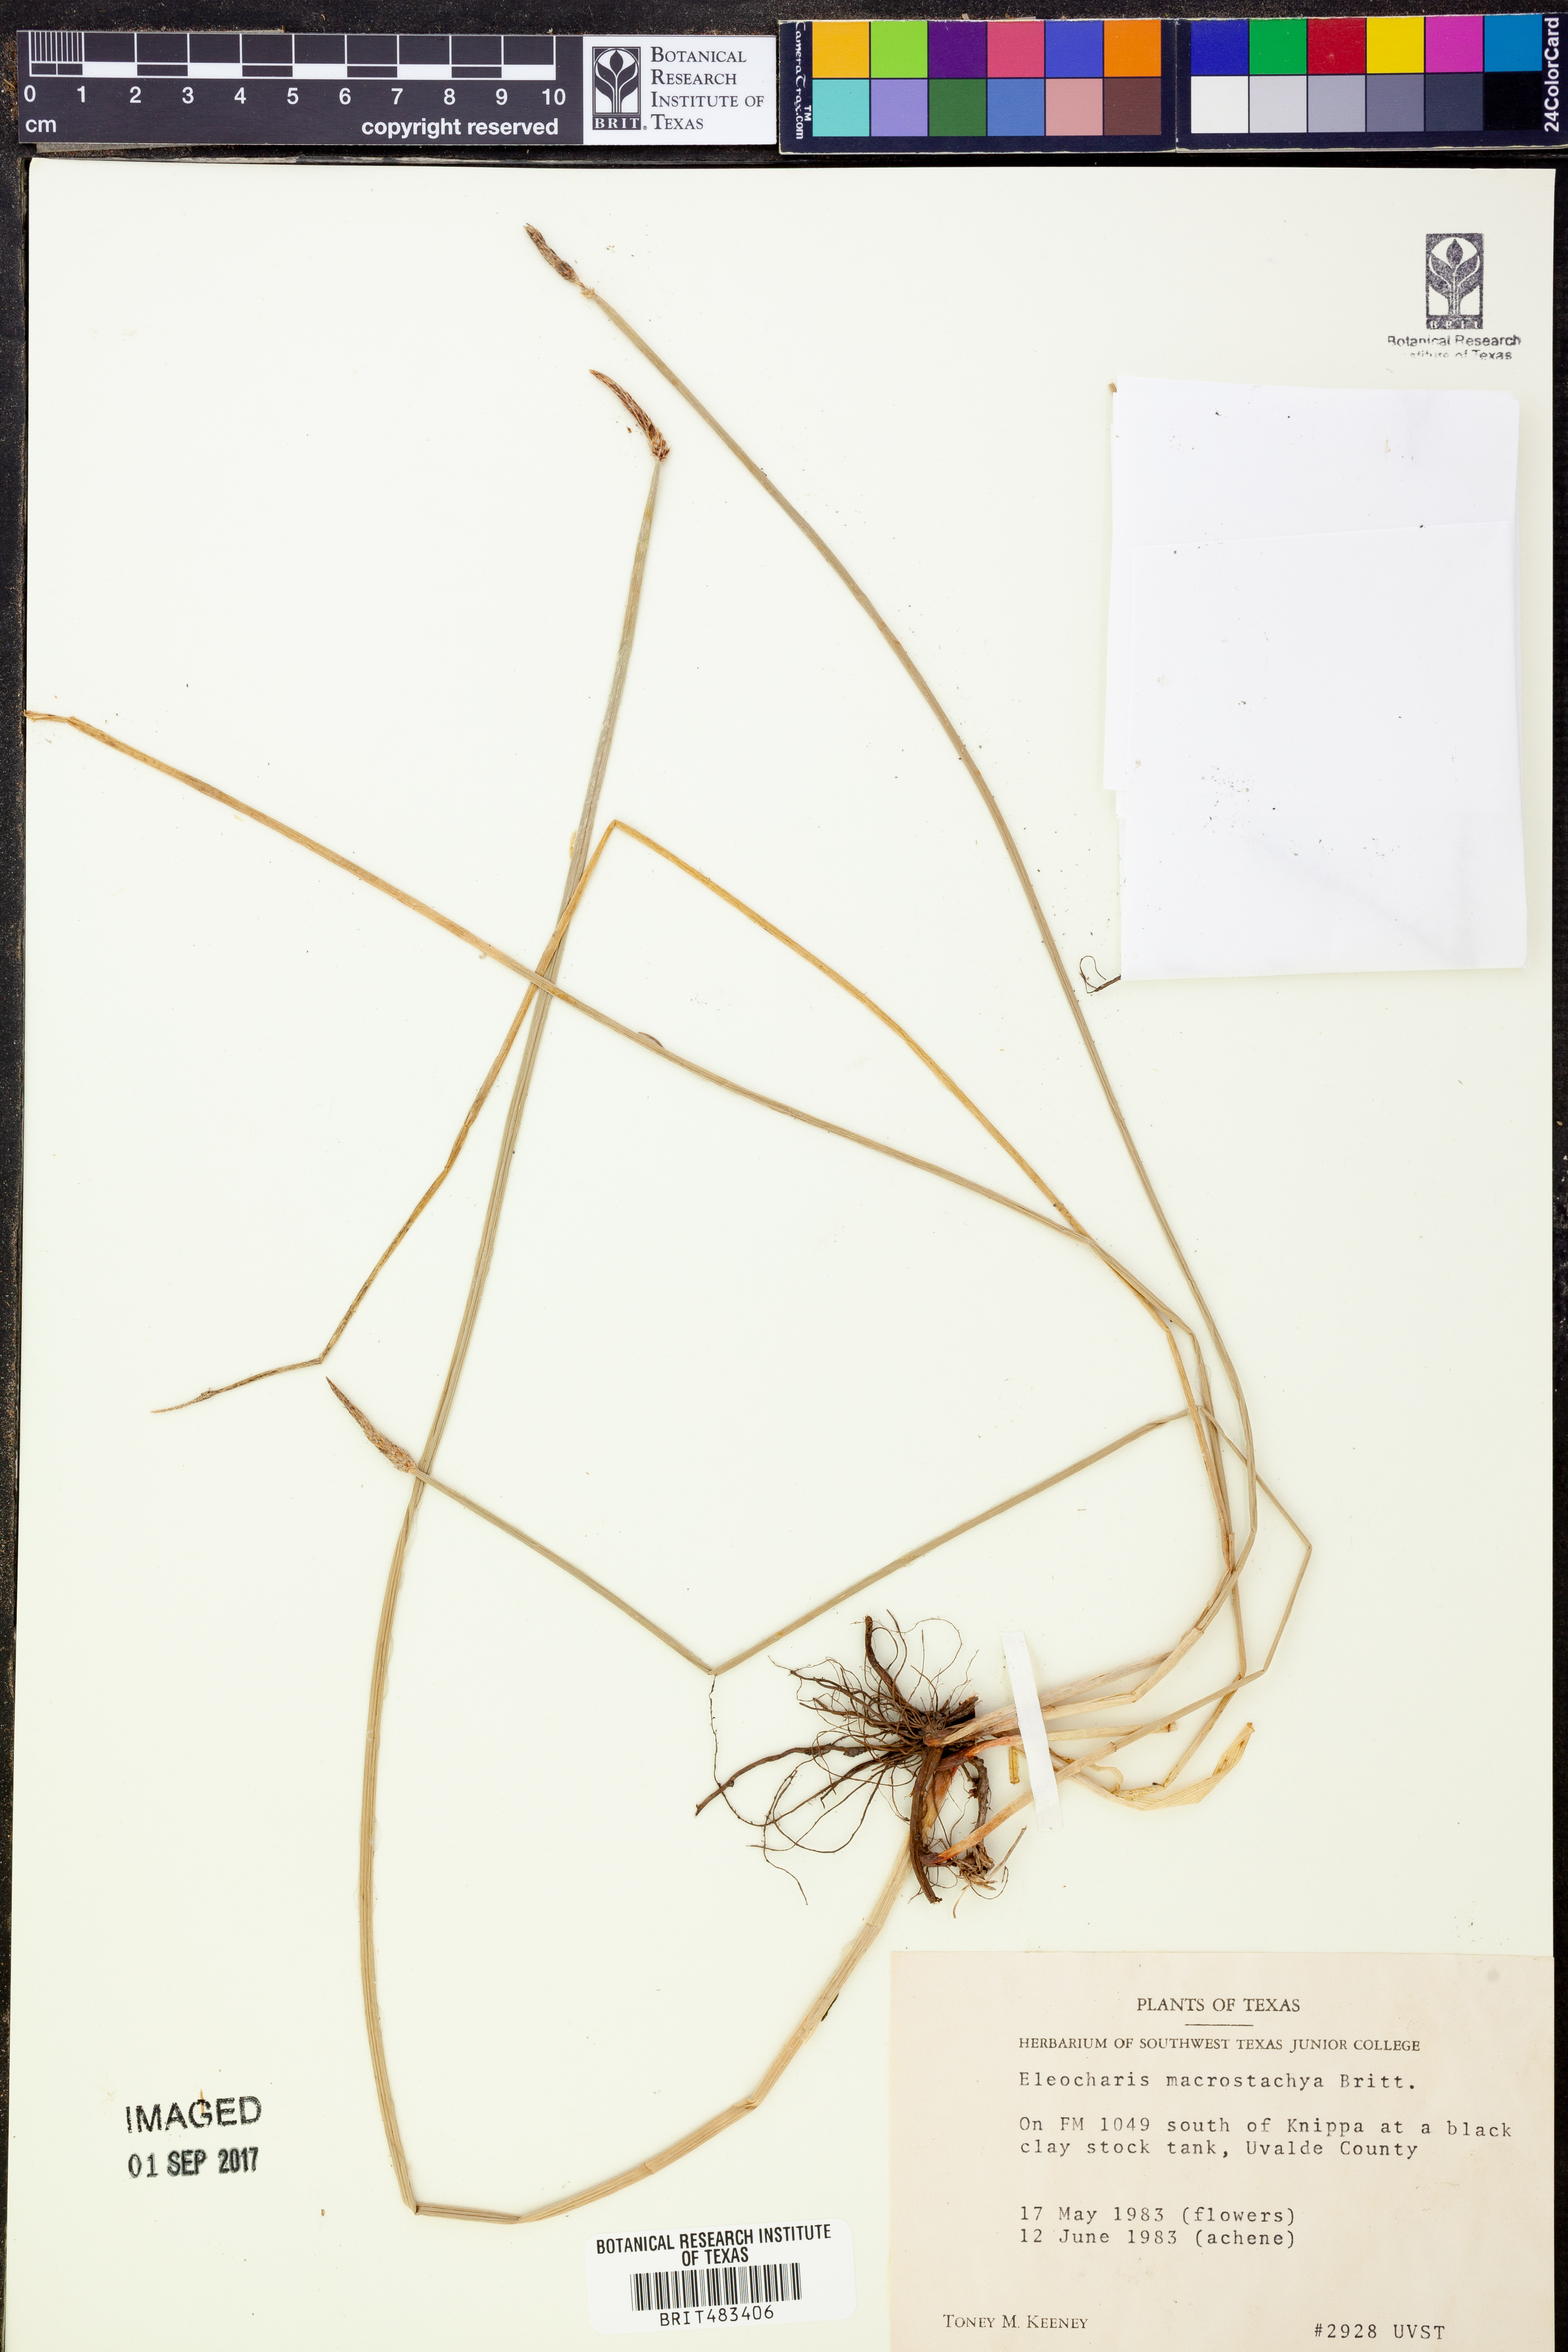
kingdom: Plantae
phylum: Tracheophyta
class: Liliopsida
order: Poales
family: Cyperaceae
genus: Eleocharis
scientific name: Eleocharis macrostachya
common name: Pale spikerush
